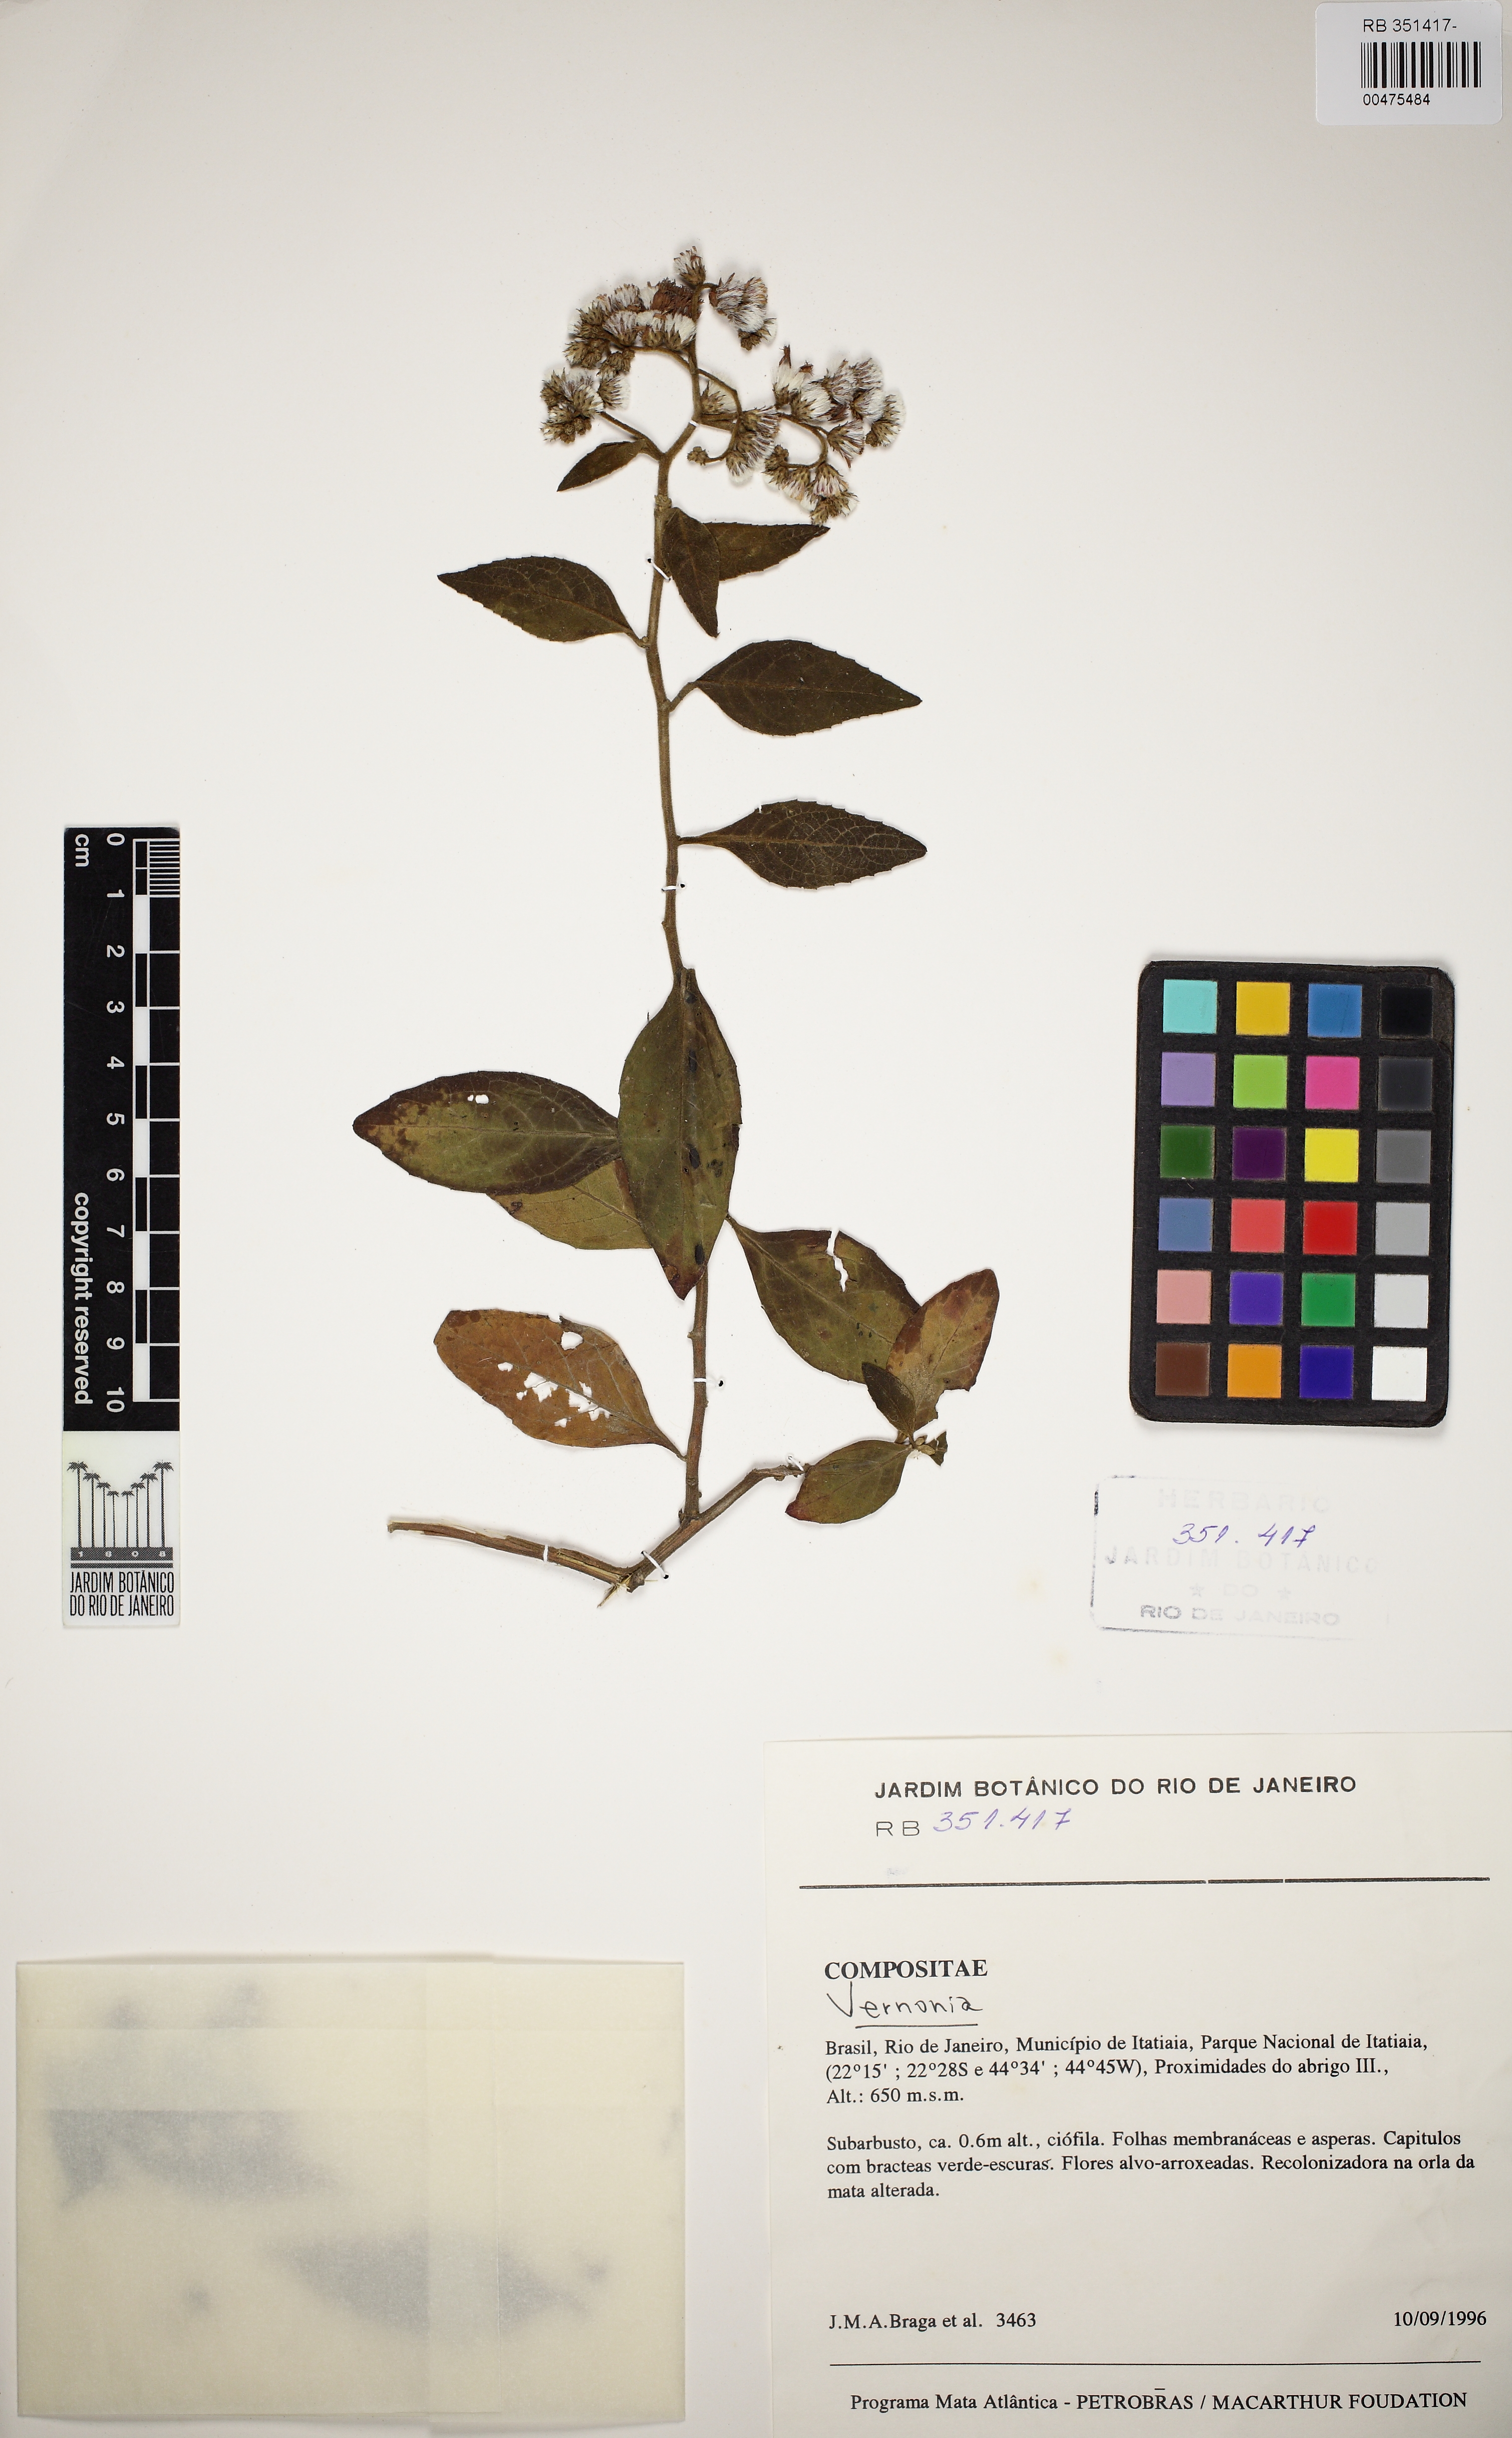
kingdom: Plantae
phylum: Tracheophyta
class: Magnoliopsida
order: Asterales
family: Asteraceae
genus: Vernonia
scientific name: Vernonia
